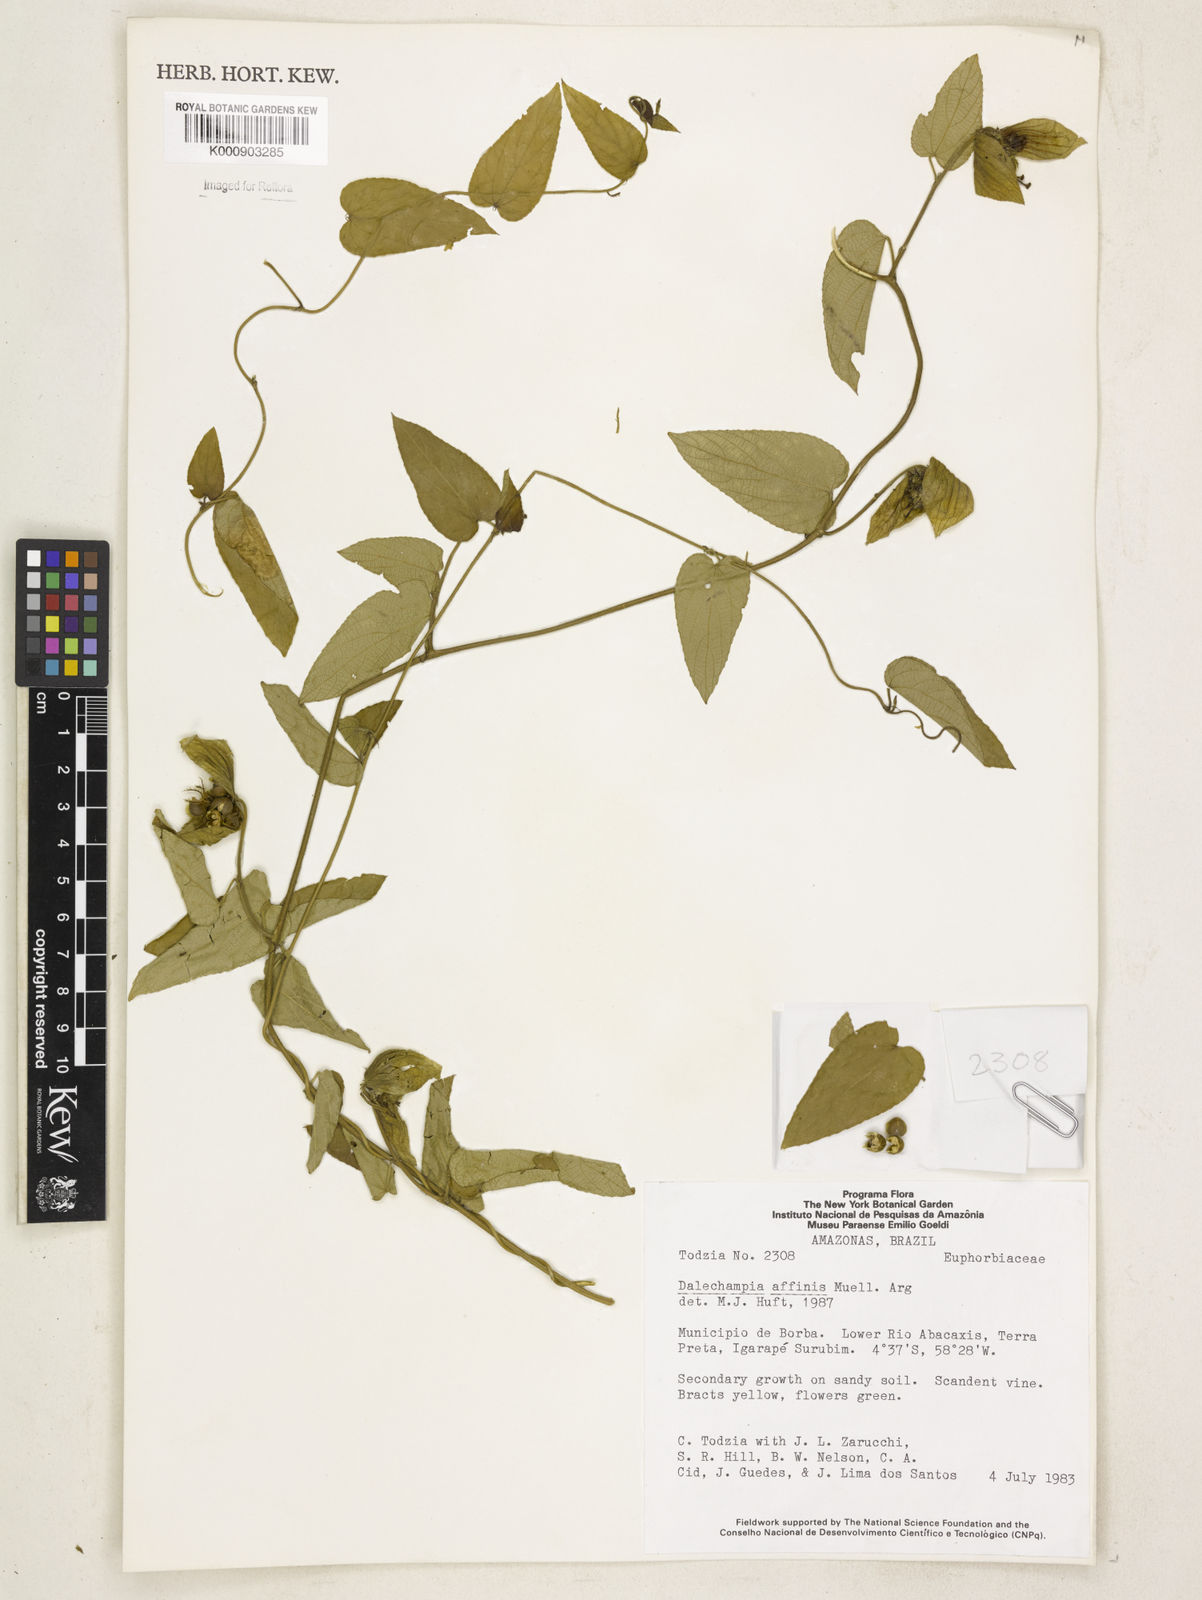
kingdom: Plantae
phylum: Tracheophyta
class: Magnoliopsida
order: Malpighiales
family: Euphorbiaceae
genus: Dalechampia
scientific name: Dalechampia
